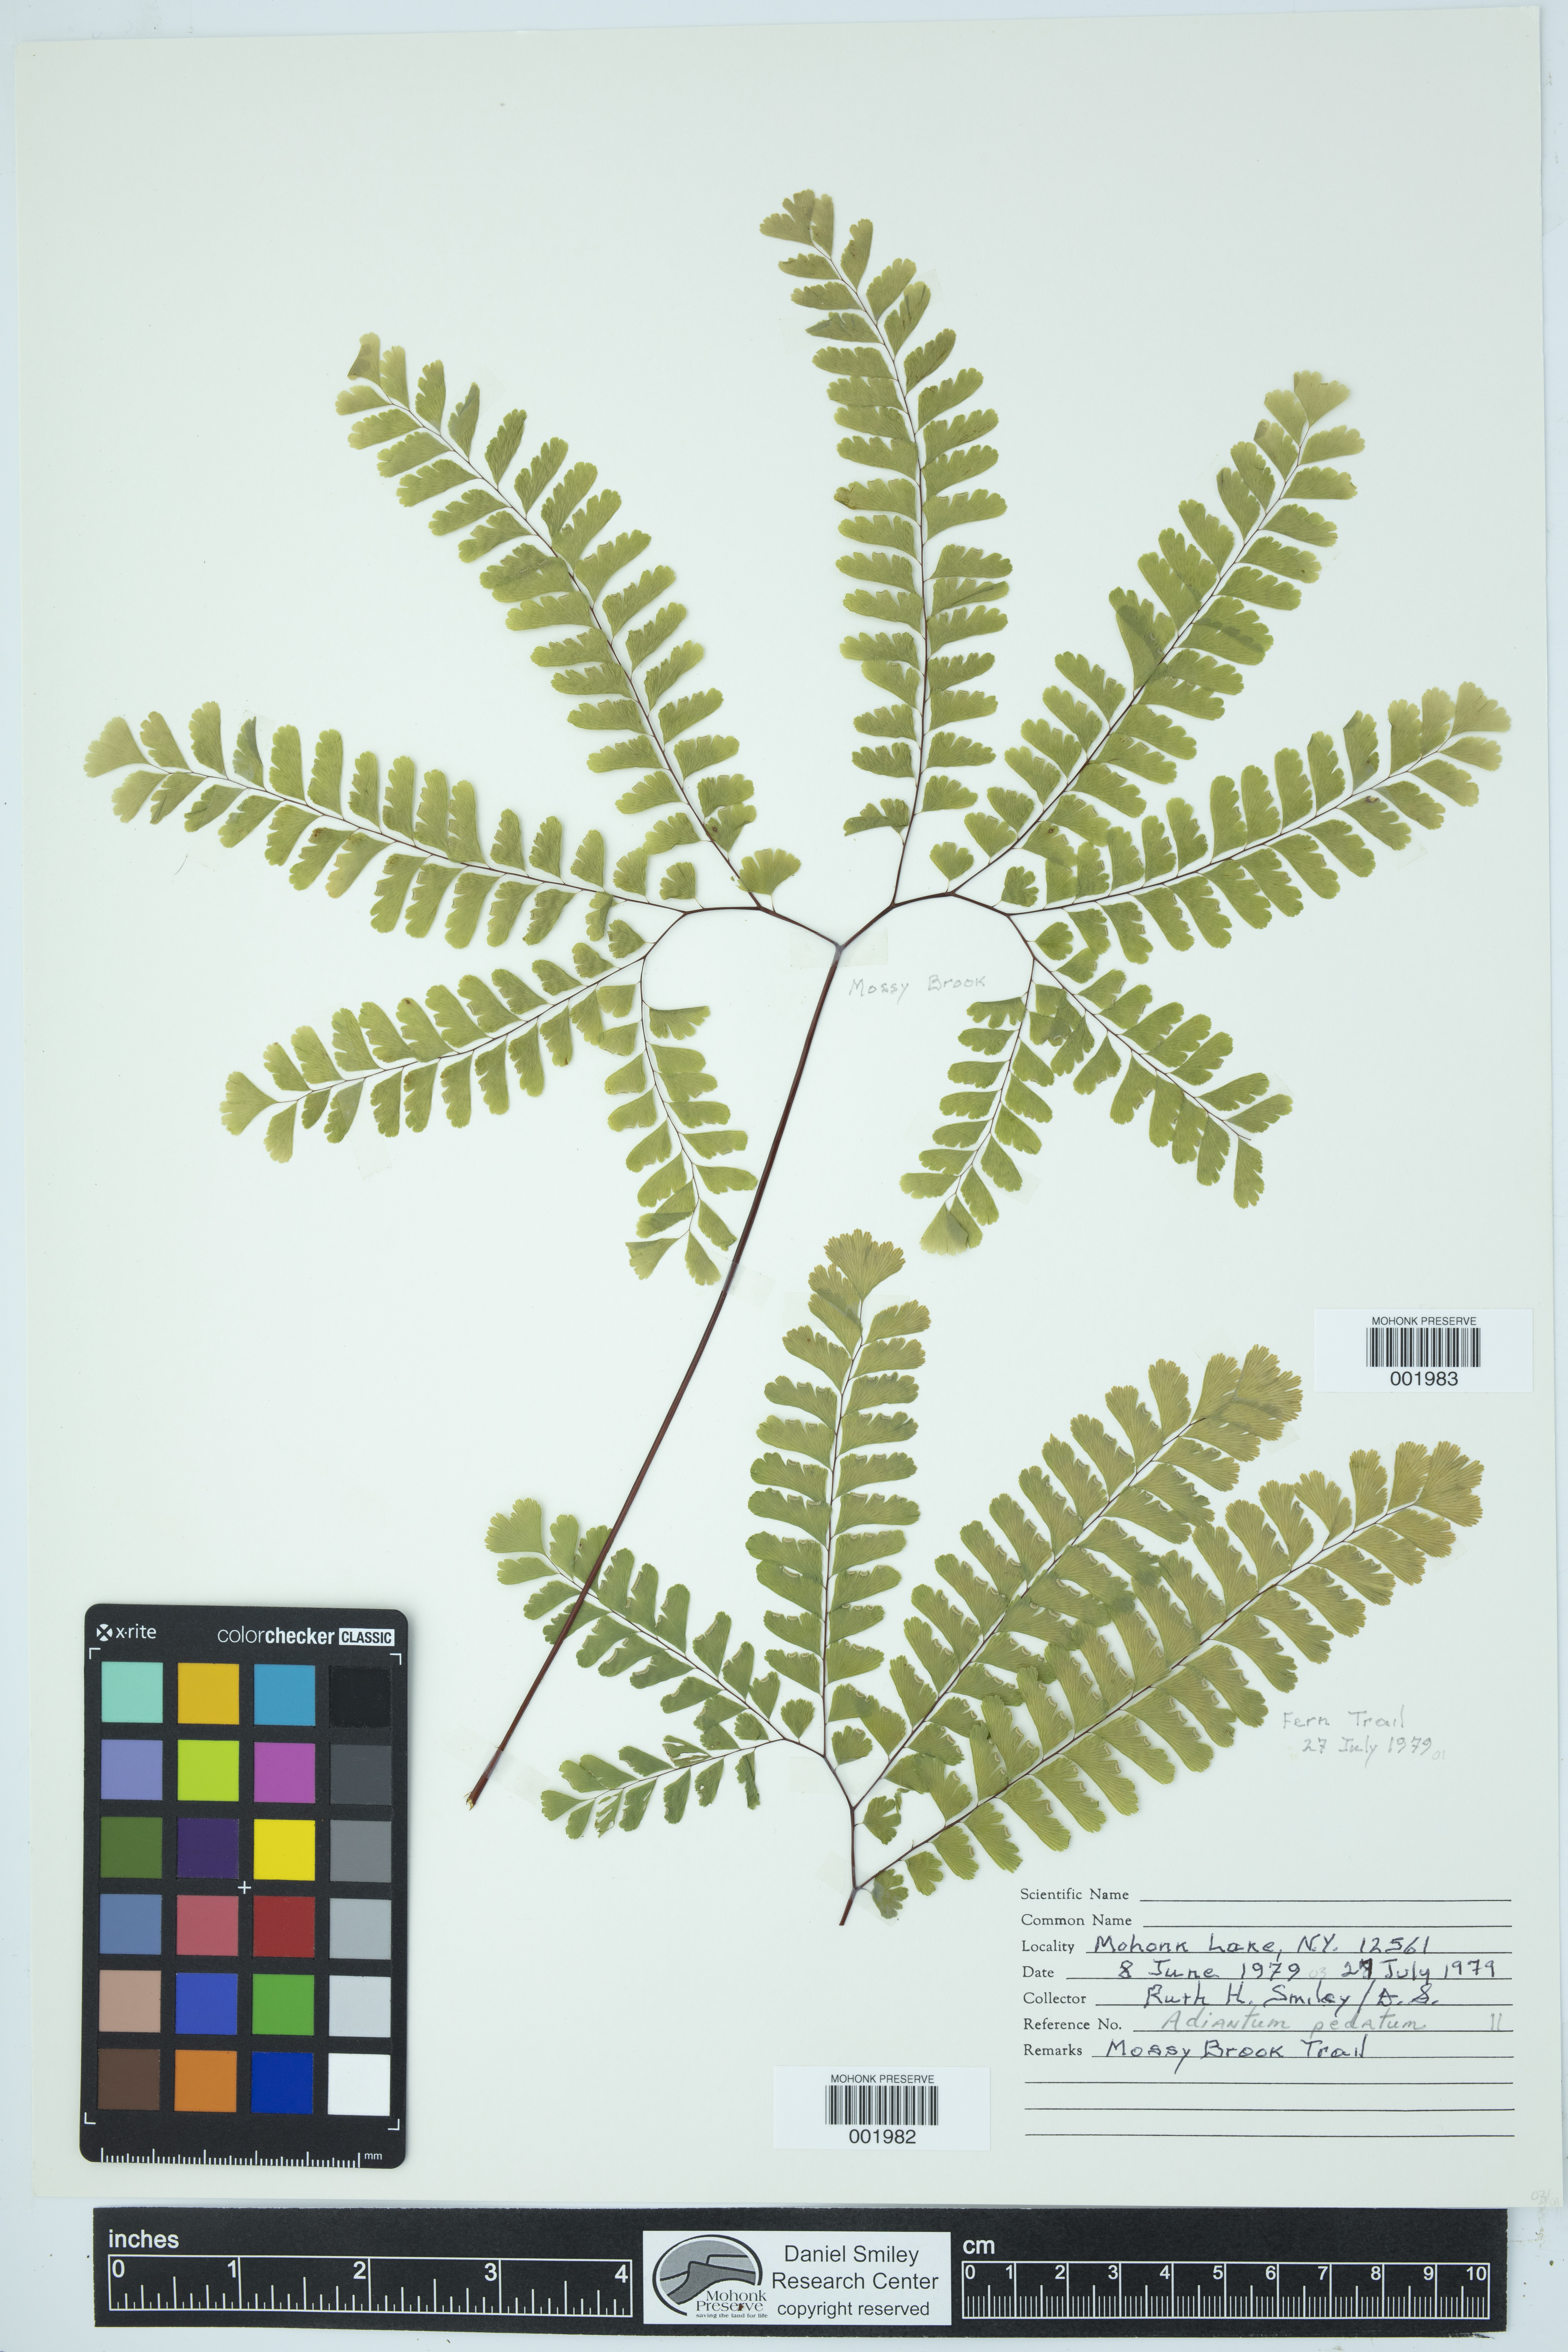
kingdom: Plantae
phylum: Tracheophyta
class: Polypodiopsida
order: Polypodiales
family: Pteridaceae
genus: Adiantum
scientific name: Adiantum pedatum
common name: Five-finger fern
